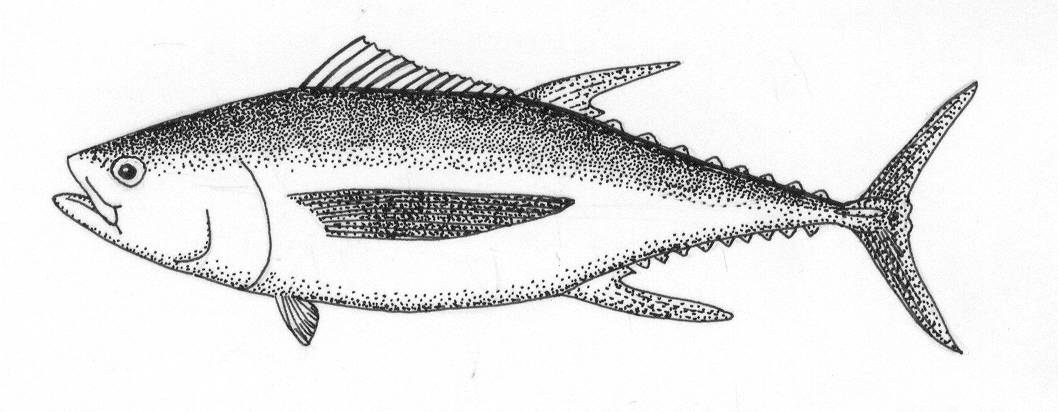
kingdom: Animalia
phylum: Chordata
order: Perciformes
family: Scombridae
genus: Thunnus
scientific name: Thunnus albacares
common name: Yellowfin tuna
